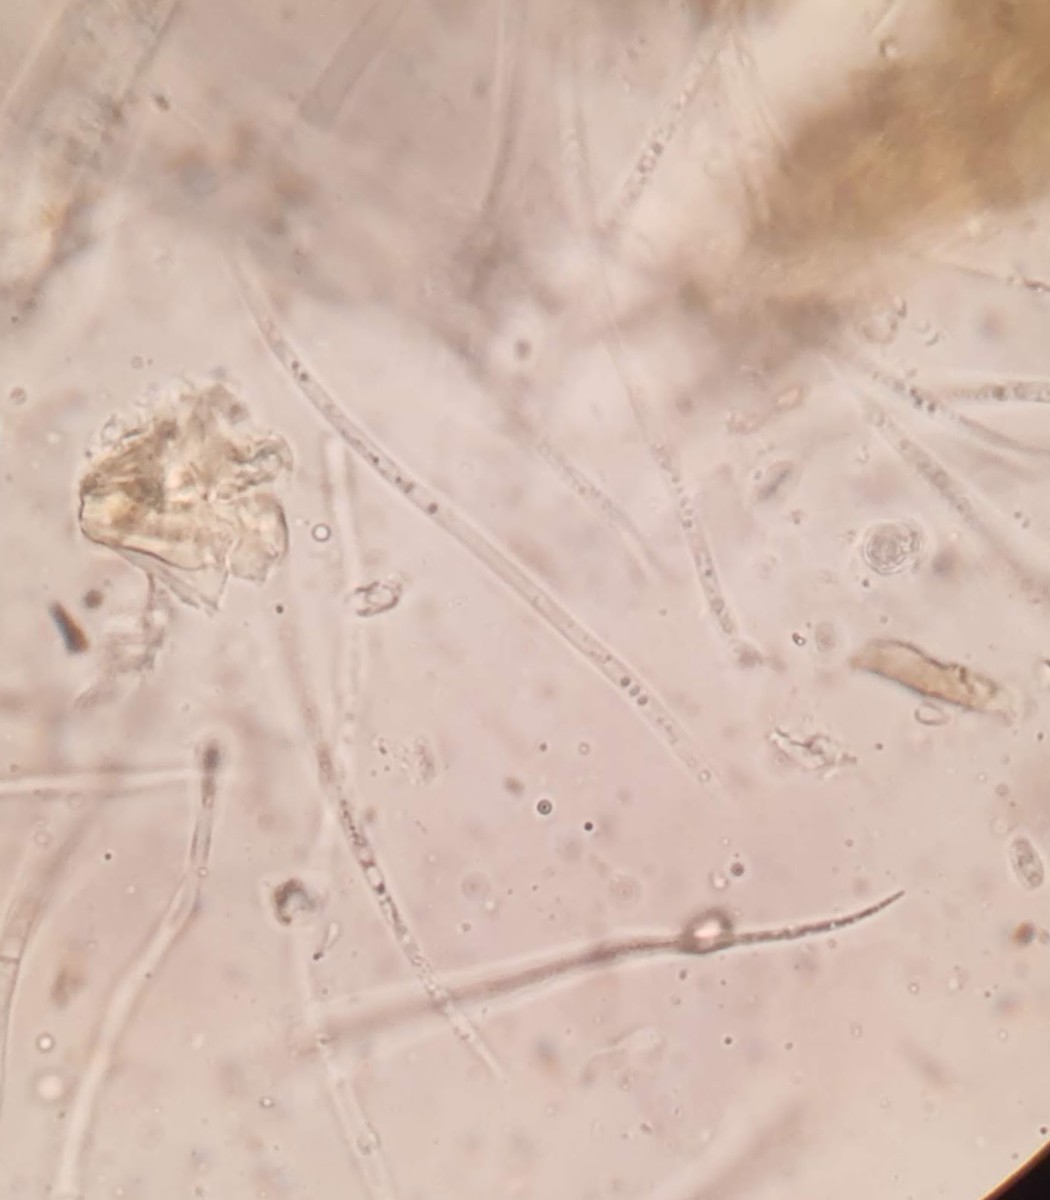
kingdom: Fungi
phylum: Ascomycota
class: Leotiomycetes
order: Rhytismatales
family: Rhytismataceae
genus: Lophodermium
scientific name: Lophodermium pinastri
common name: fyrre-fureplet
